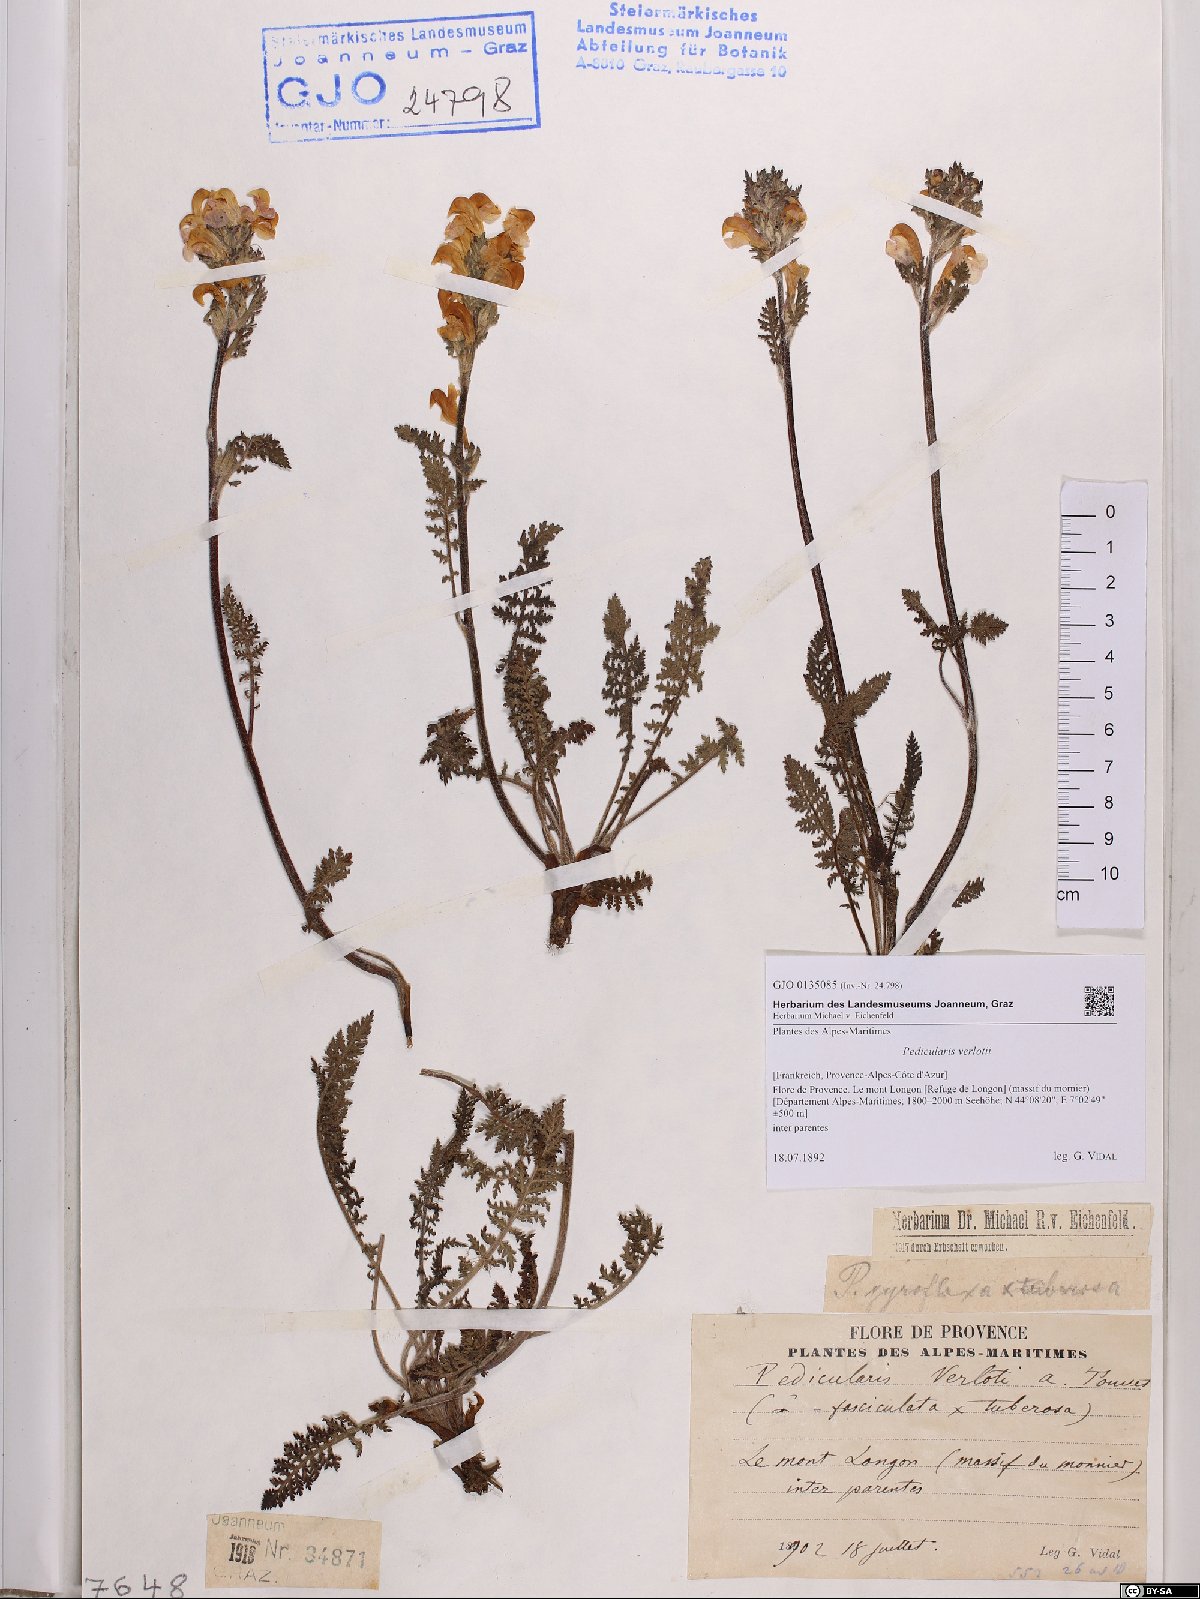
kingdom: Plantae
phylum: Tracheophyta
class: Magnoliopsida
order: Lamiales
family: Orobanchaceae
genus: Pedicularis
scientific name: Pedicularis verlotii
